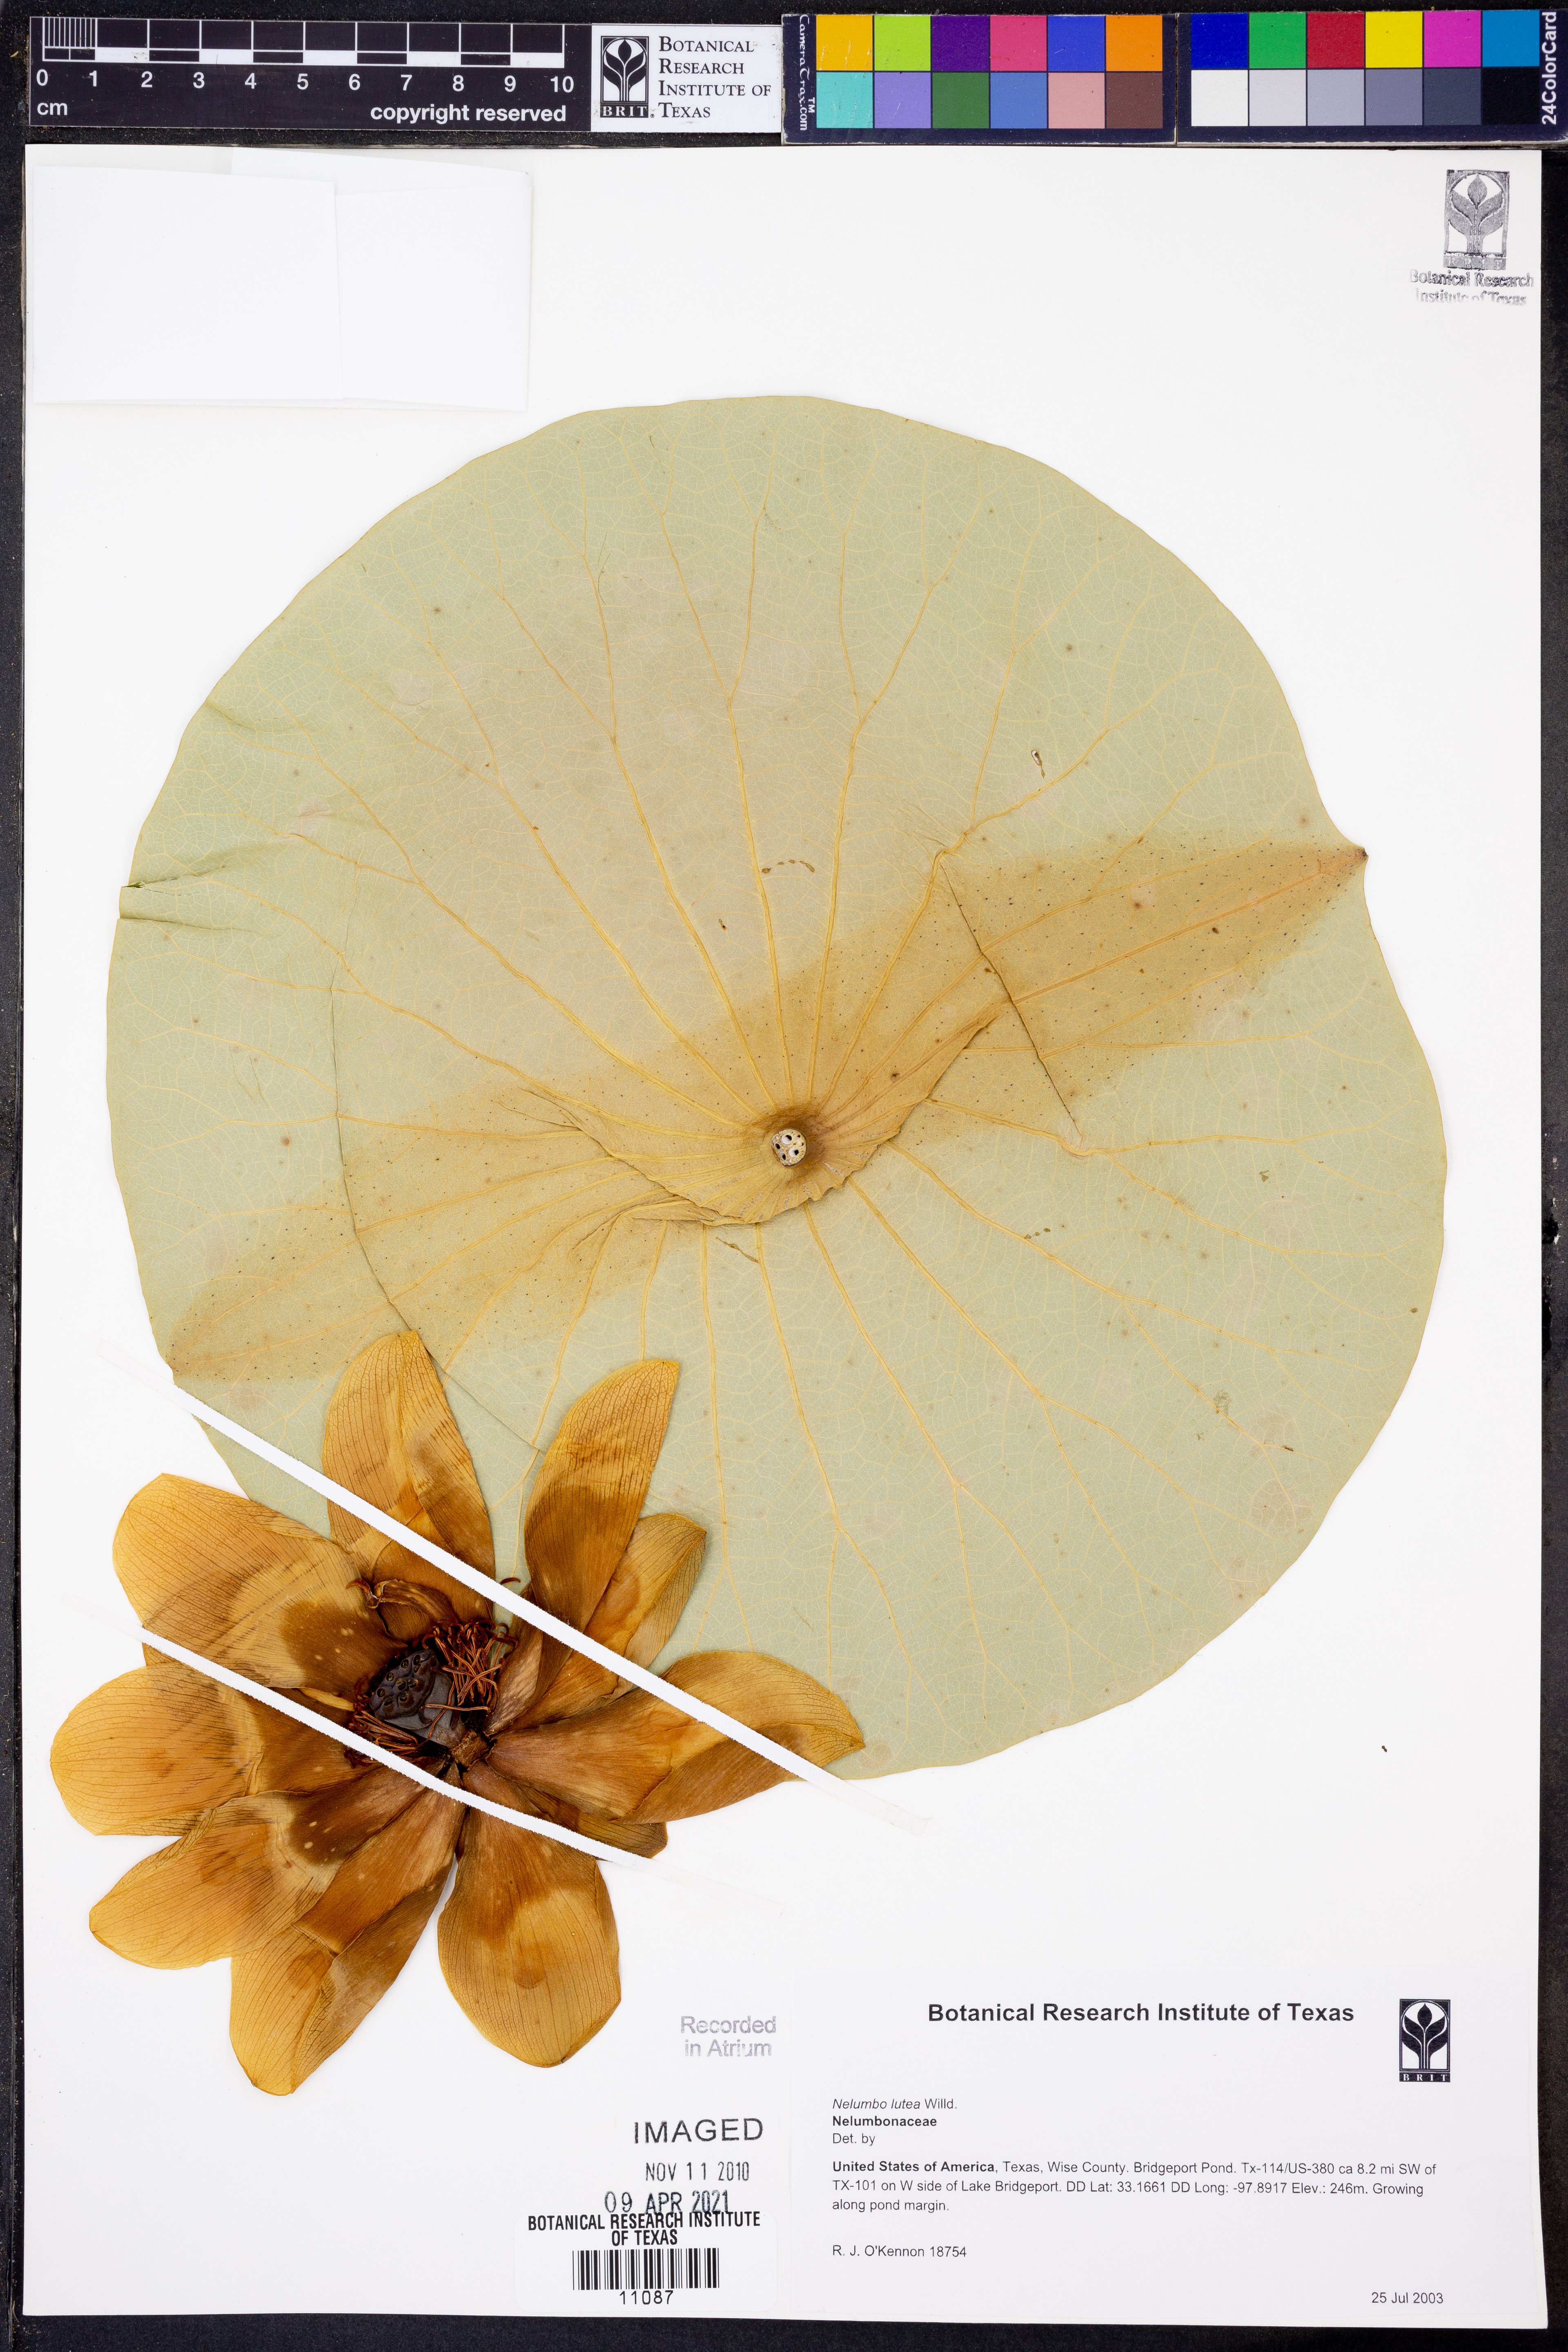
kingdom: Plantae
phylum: Tracheophyta
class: Magnoliopsida
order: Proteales
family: Nelumbonaceae
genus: Nelumbo
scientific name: Nelumbo lutea
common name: American lotus
